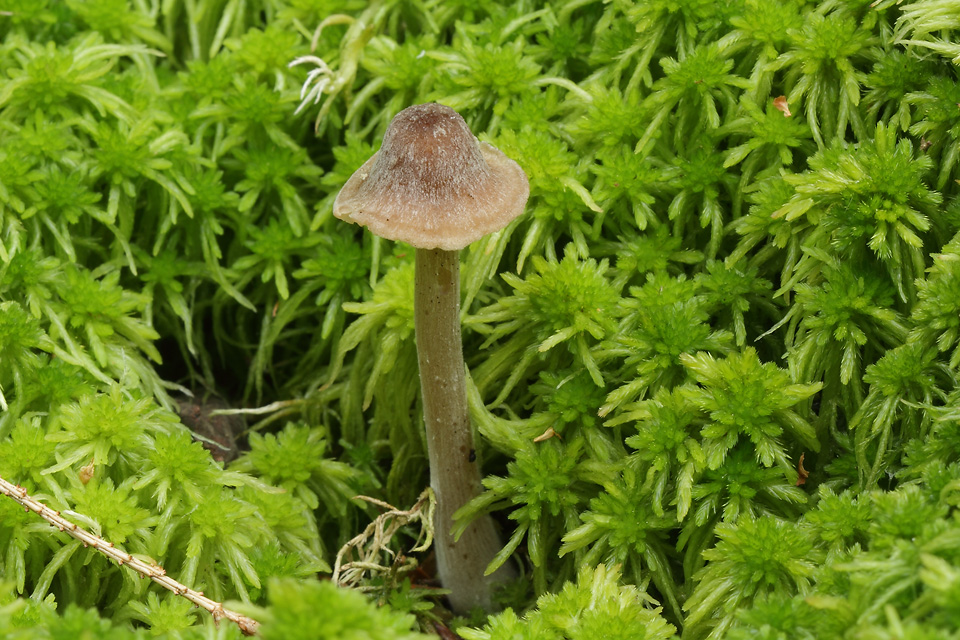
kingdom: Fungi
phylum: Basidiomycota
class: Agaricomycetes
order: Agaricales
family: Entolomataceae
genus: Entoloma
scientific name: Entoloma cetratum
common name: voks-rødblad
